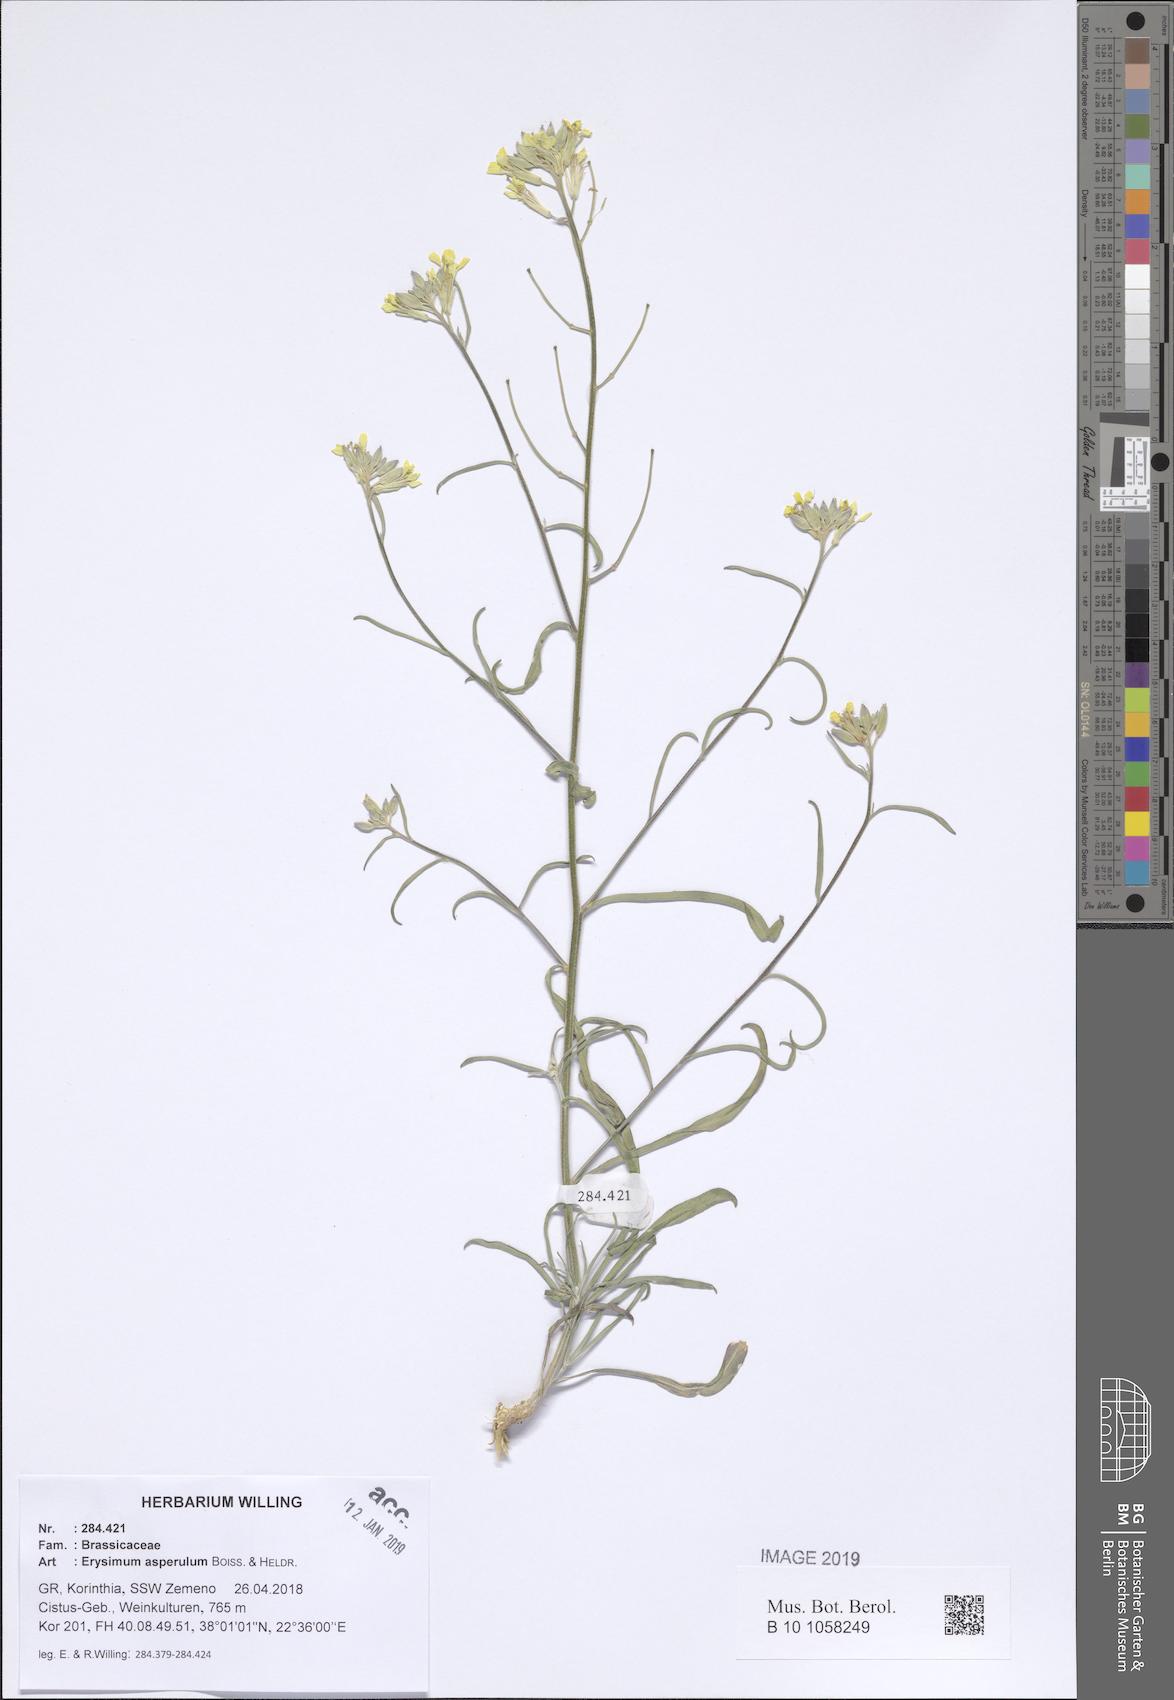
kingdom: Plantae
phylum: Tracheophyta
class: Magnoliopsida
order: Brassicales
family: Brassicaceae
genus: Erysimum
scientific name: Erysimum asperulum
